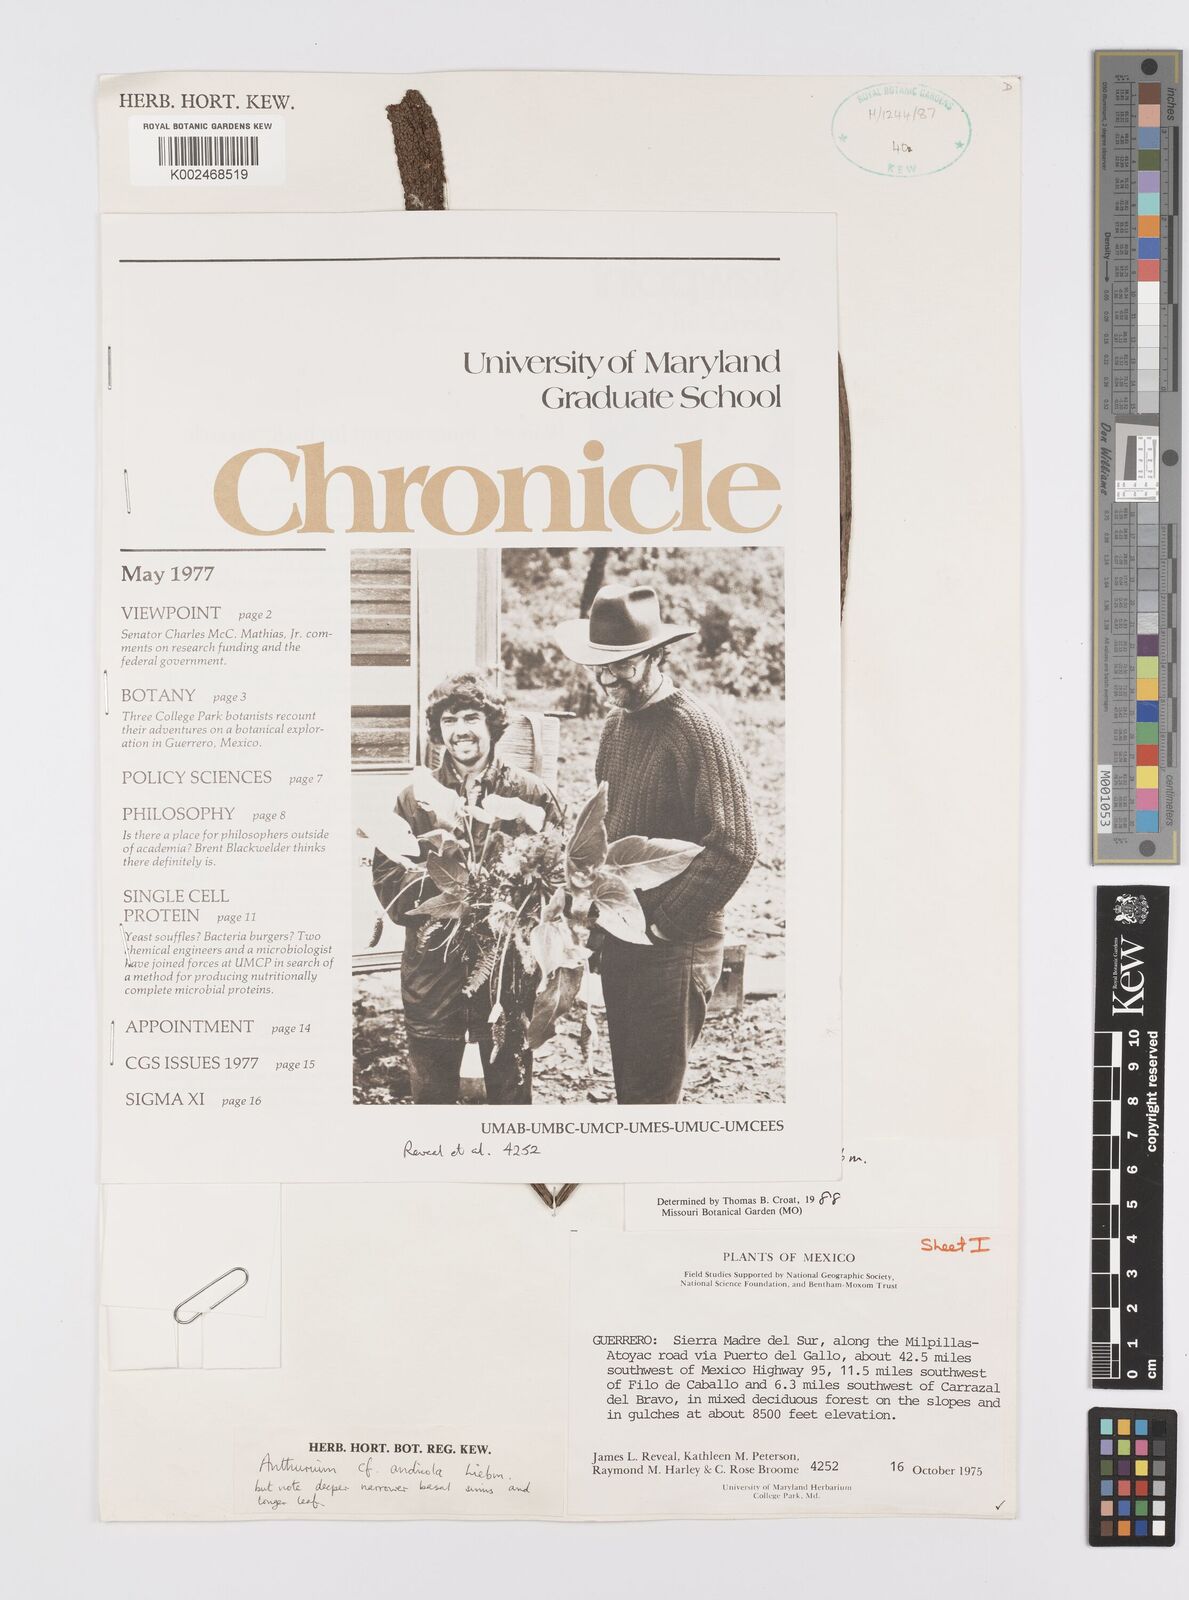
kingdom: Plantae
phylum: Tracheophyta
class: Liliopsida
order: Alismatales
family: Araceae
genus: Anthurium
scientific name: Anthurium andicola
